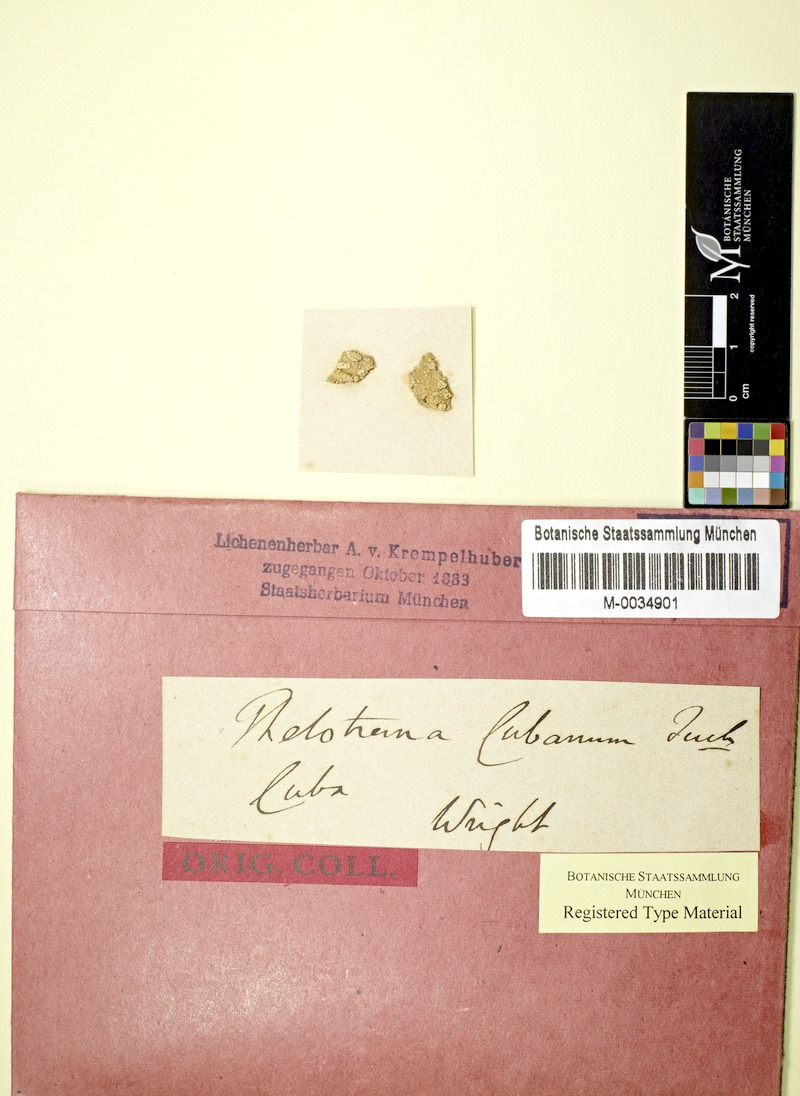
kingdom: Fungi
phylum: Ascomycota
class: Lecanoromycetes
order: Ostropales
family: Graphidaceae
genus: Stegobolus
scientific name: Stegobolus fissus
